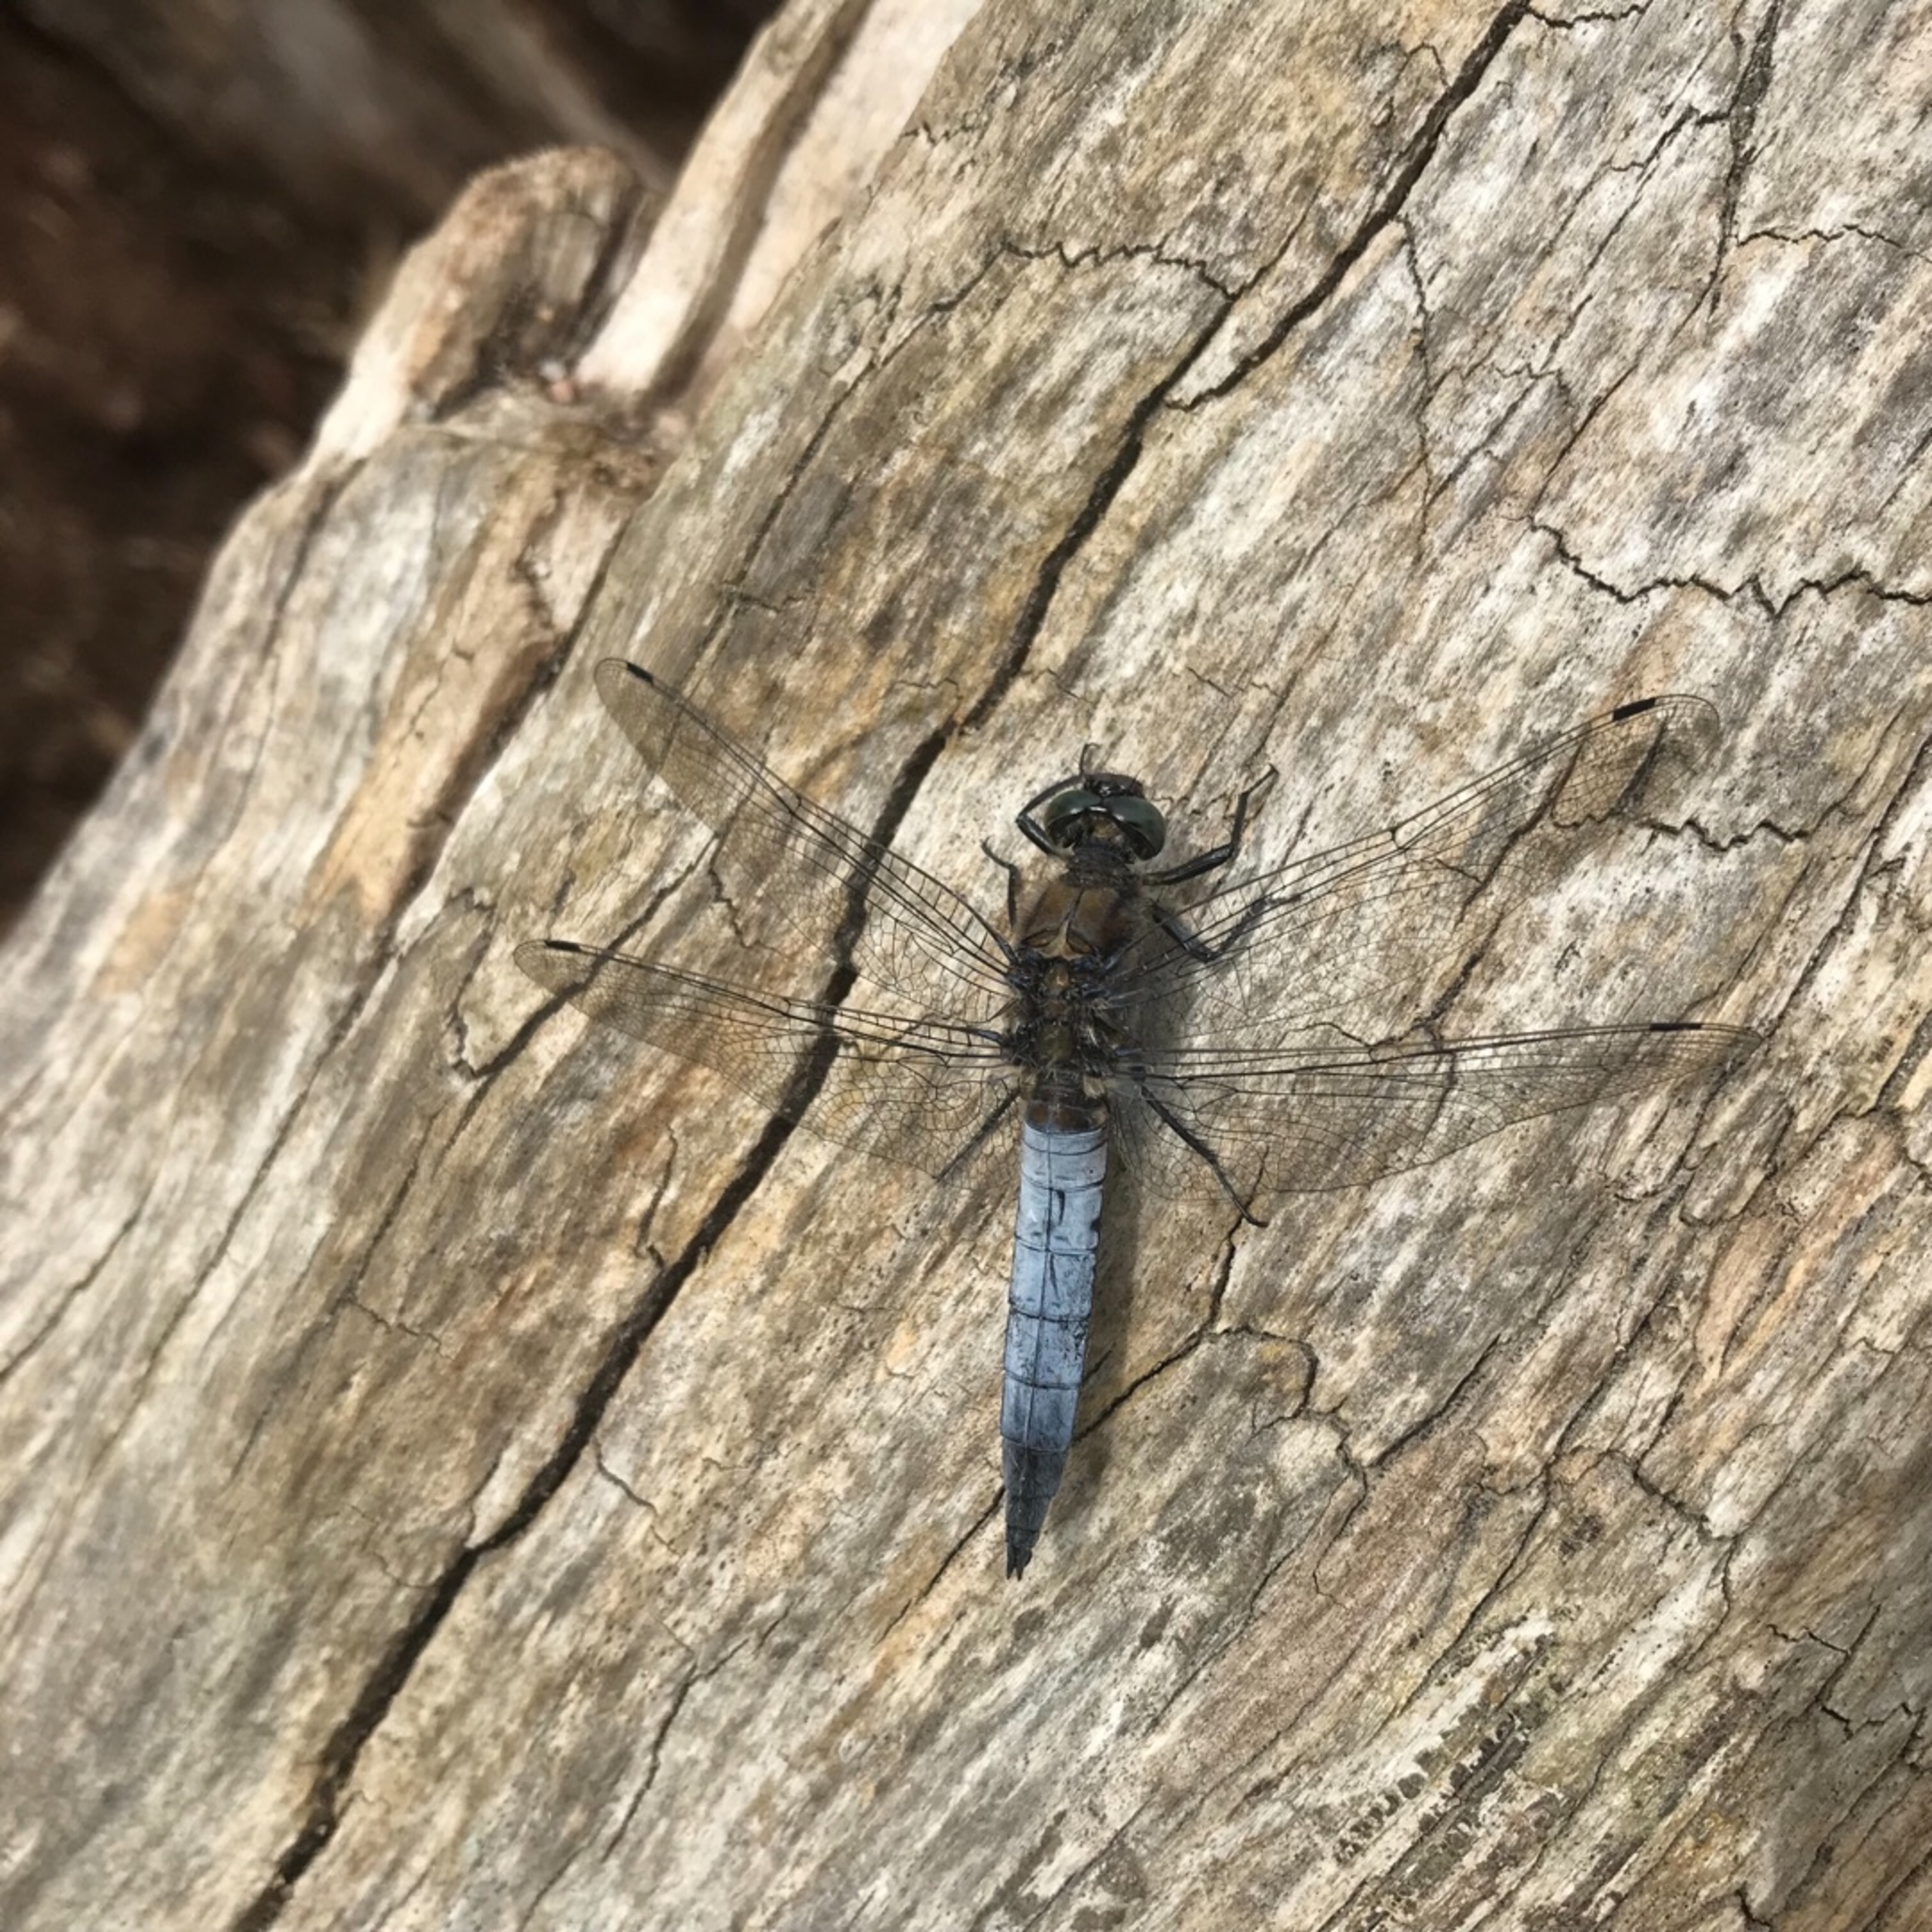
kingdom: Animalia
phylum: Arthropoda
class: Insecta
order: Odonata
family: Libellulidae
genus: Orthetrum
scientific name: Orthetrum cancellatum
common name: Stor blåpil
